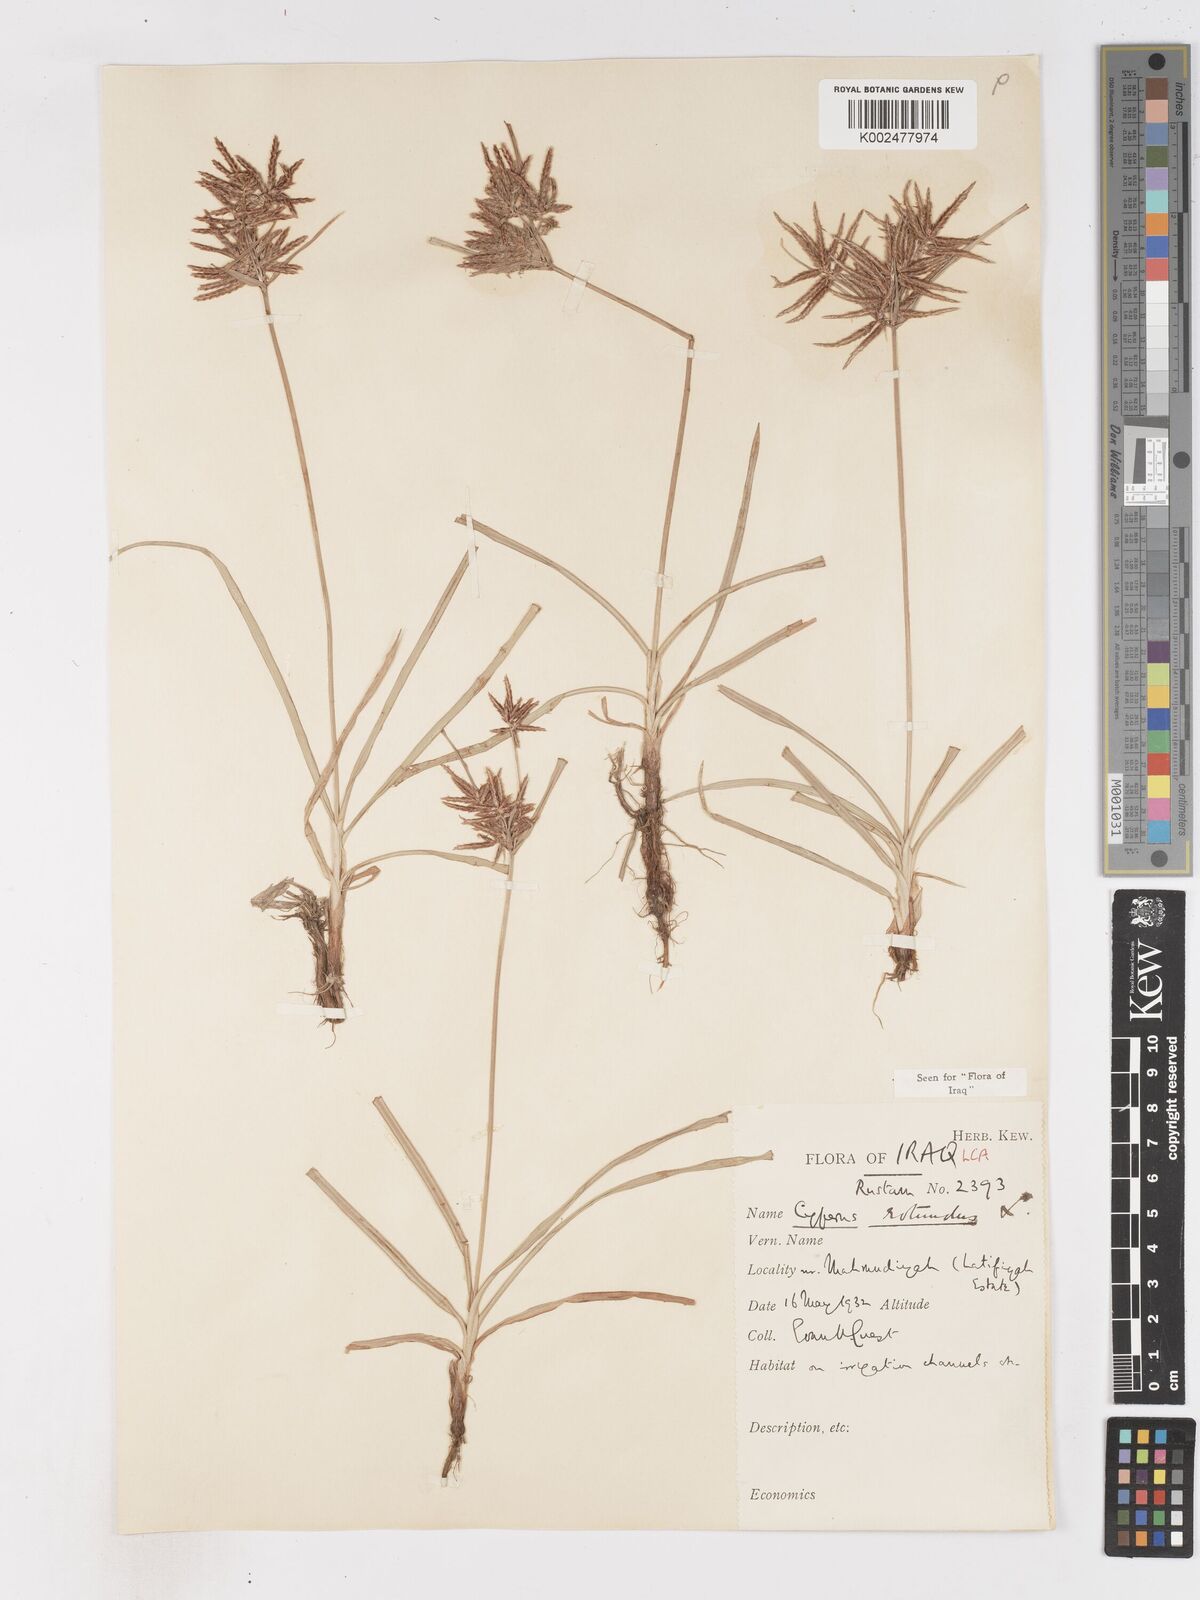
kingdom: Plantae
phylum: Tracheophyta
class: Liliopsida
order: Poales
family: Cyperaceae
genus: Cyperus
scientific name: Cyperus rotundus
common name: Nutgrass
